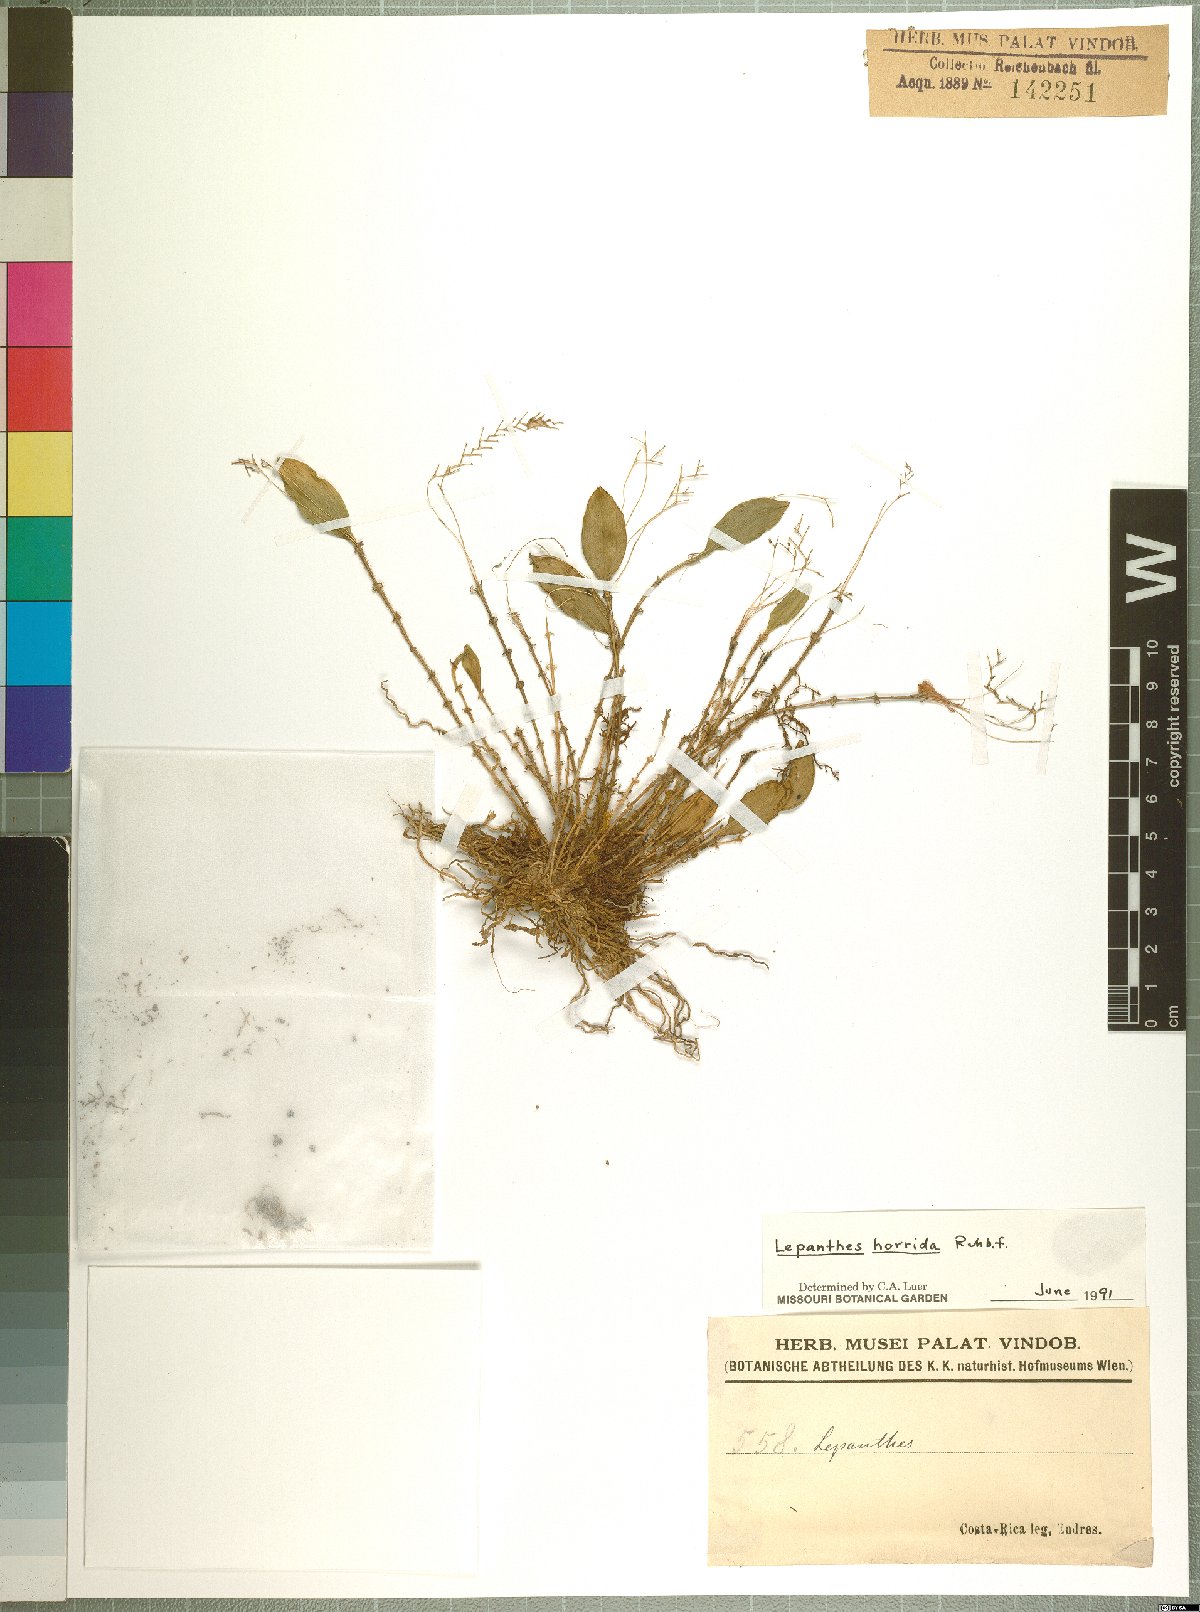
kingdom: Plantae
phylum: Tracheophyta
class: Liliopsida
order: Asparagales
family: Orchidaceae
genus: Lepanthes
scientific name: Lepanthes horrida
